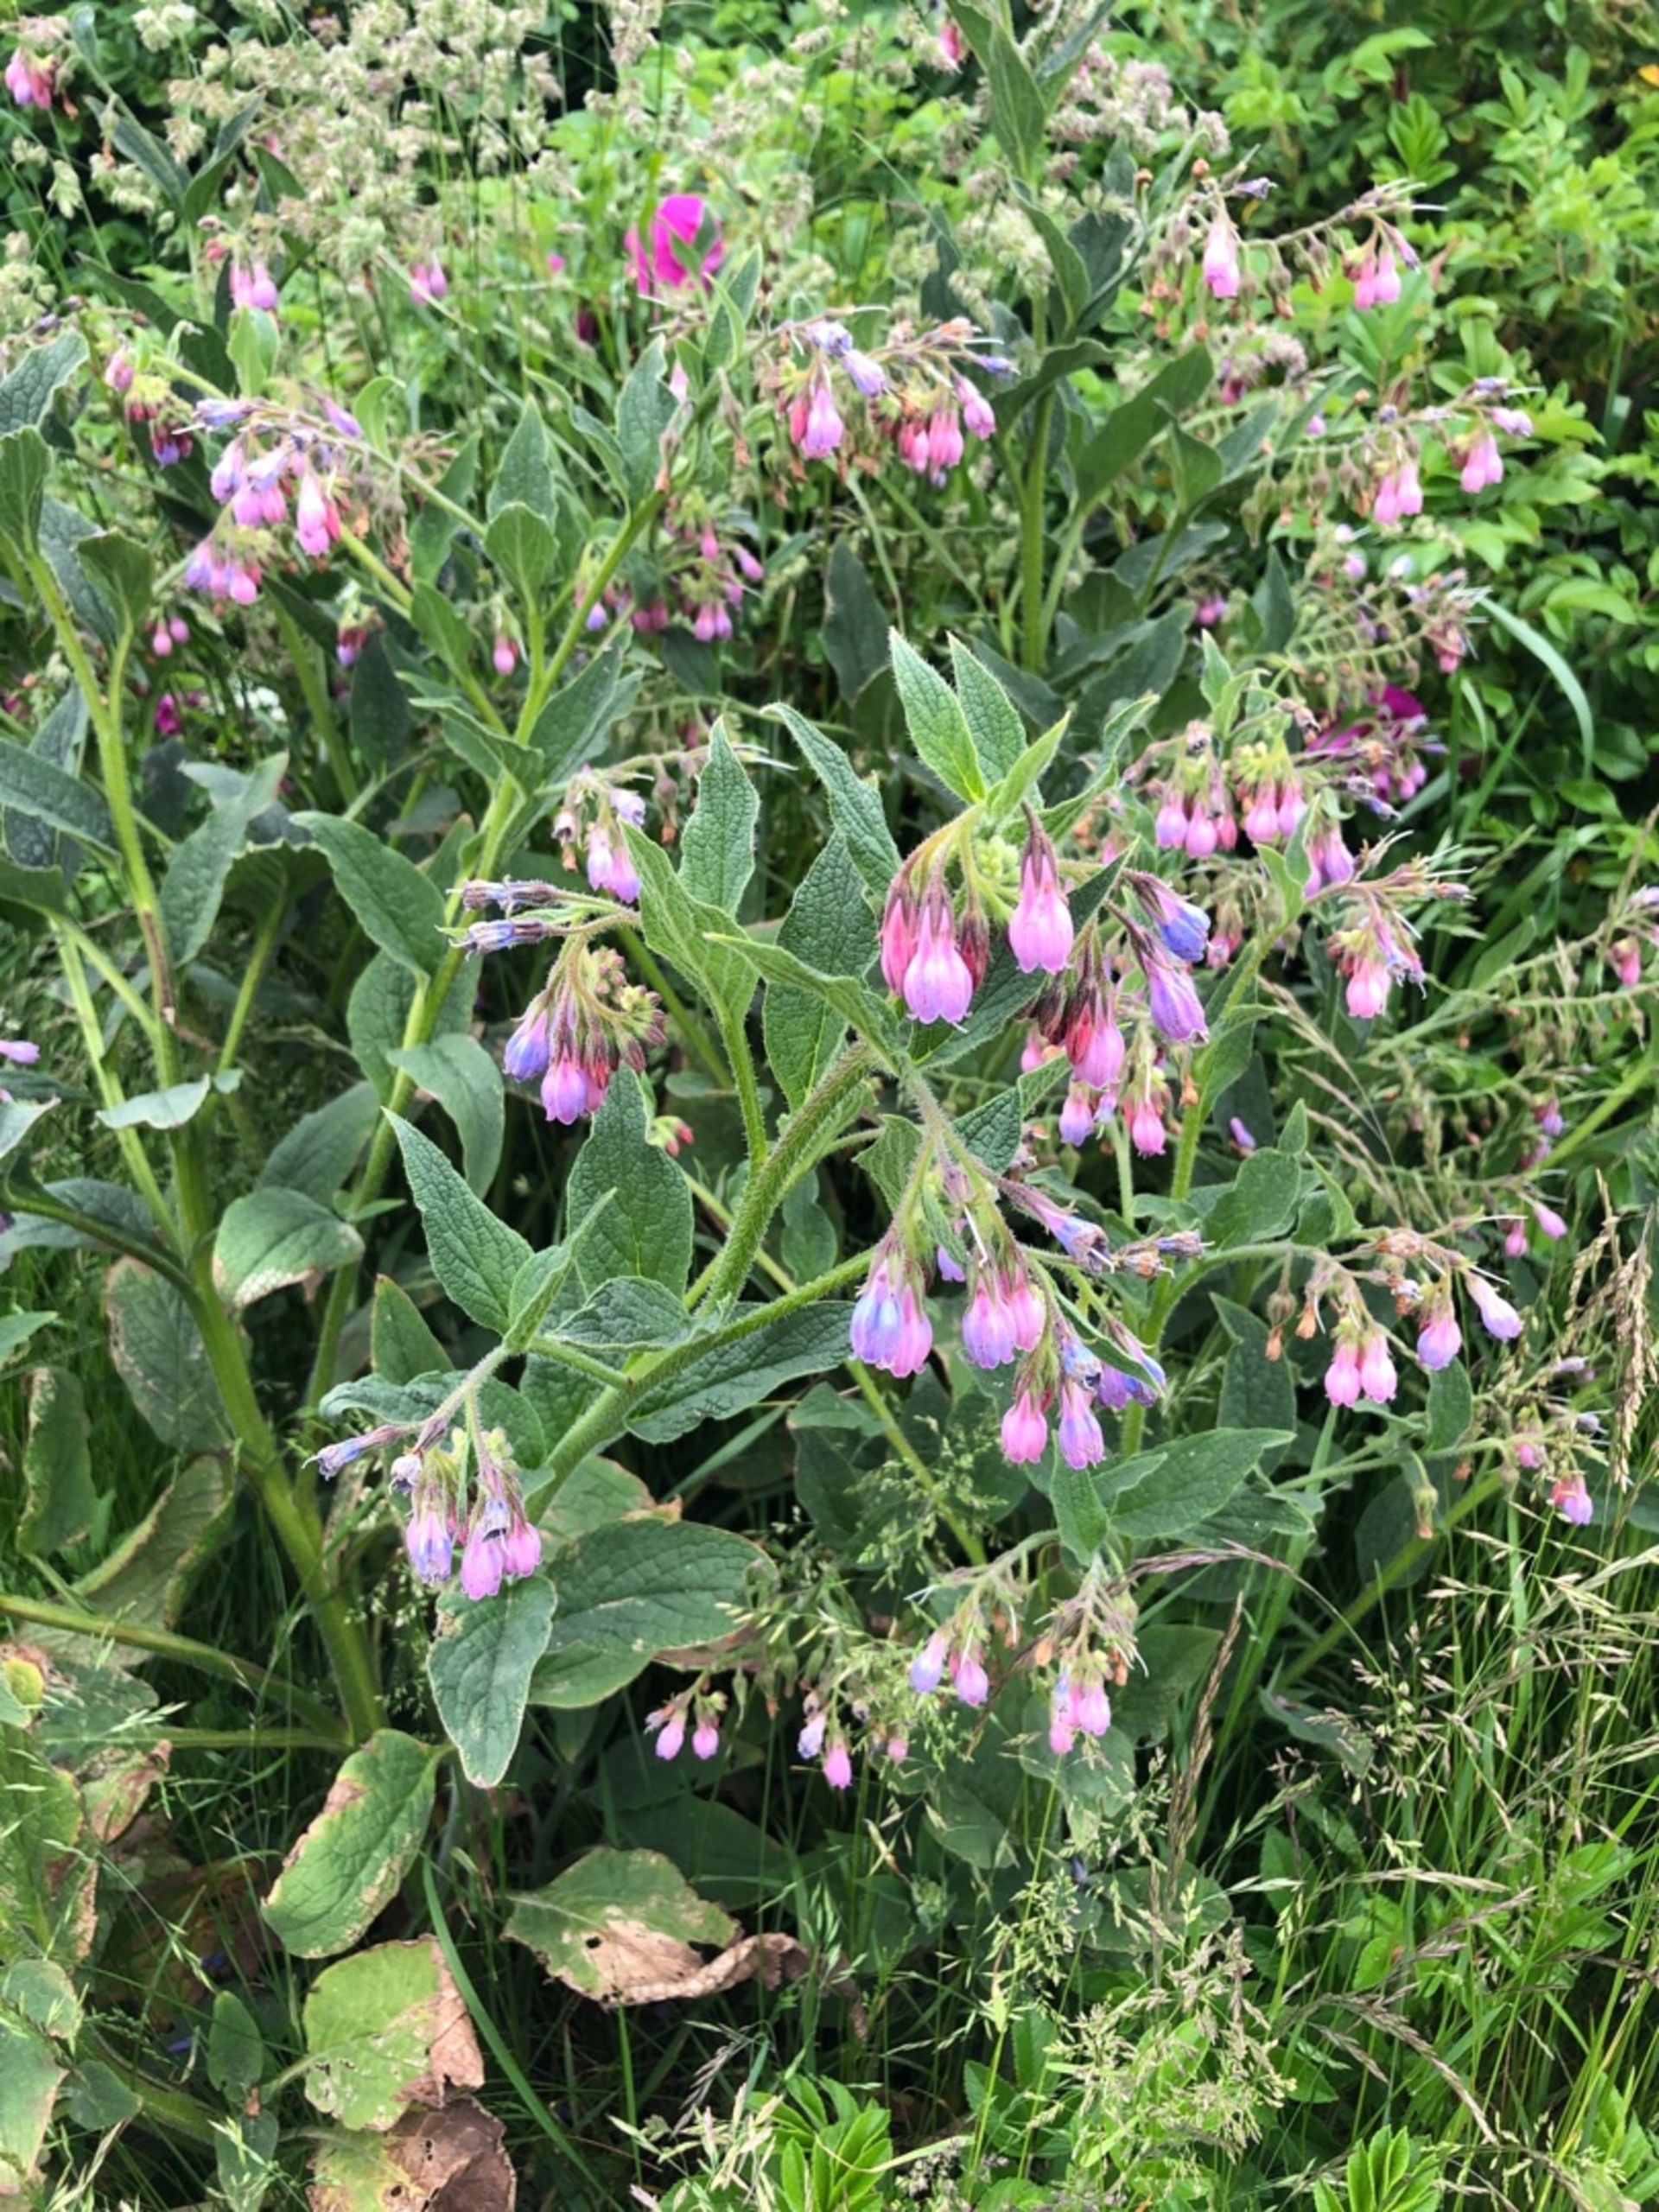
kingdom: Plantae
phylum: Tracheophyta
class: Magnoliopsida
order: Boraginales
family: Boraginaceae
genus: Symphytum
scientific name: Symphytum uplandicum
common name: Foder-kulsukker
